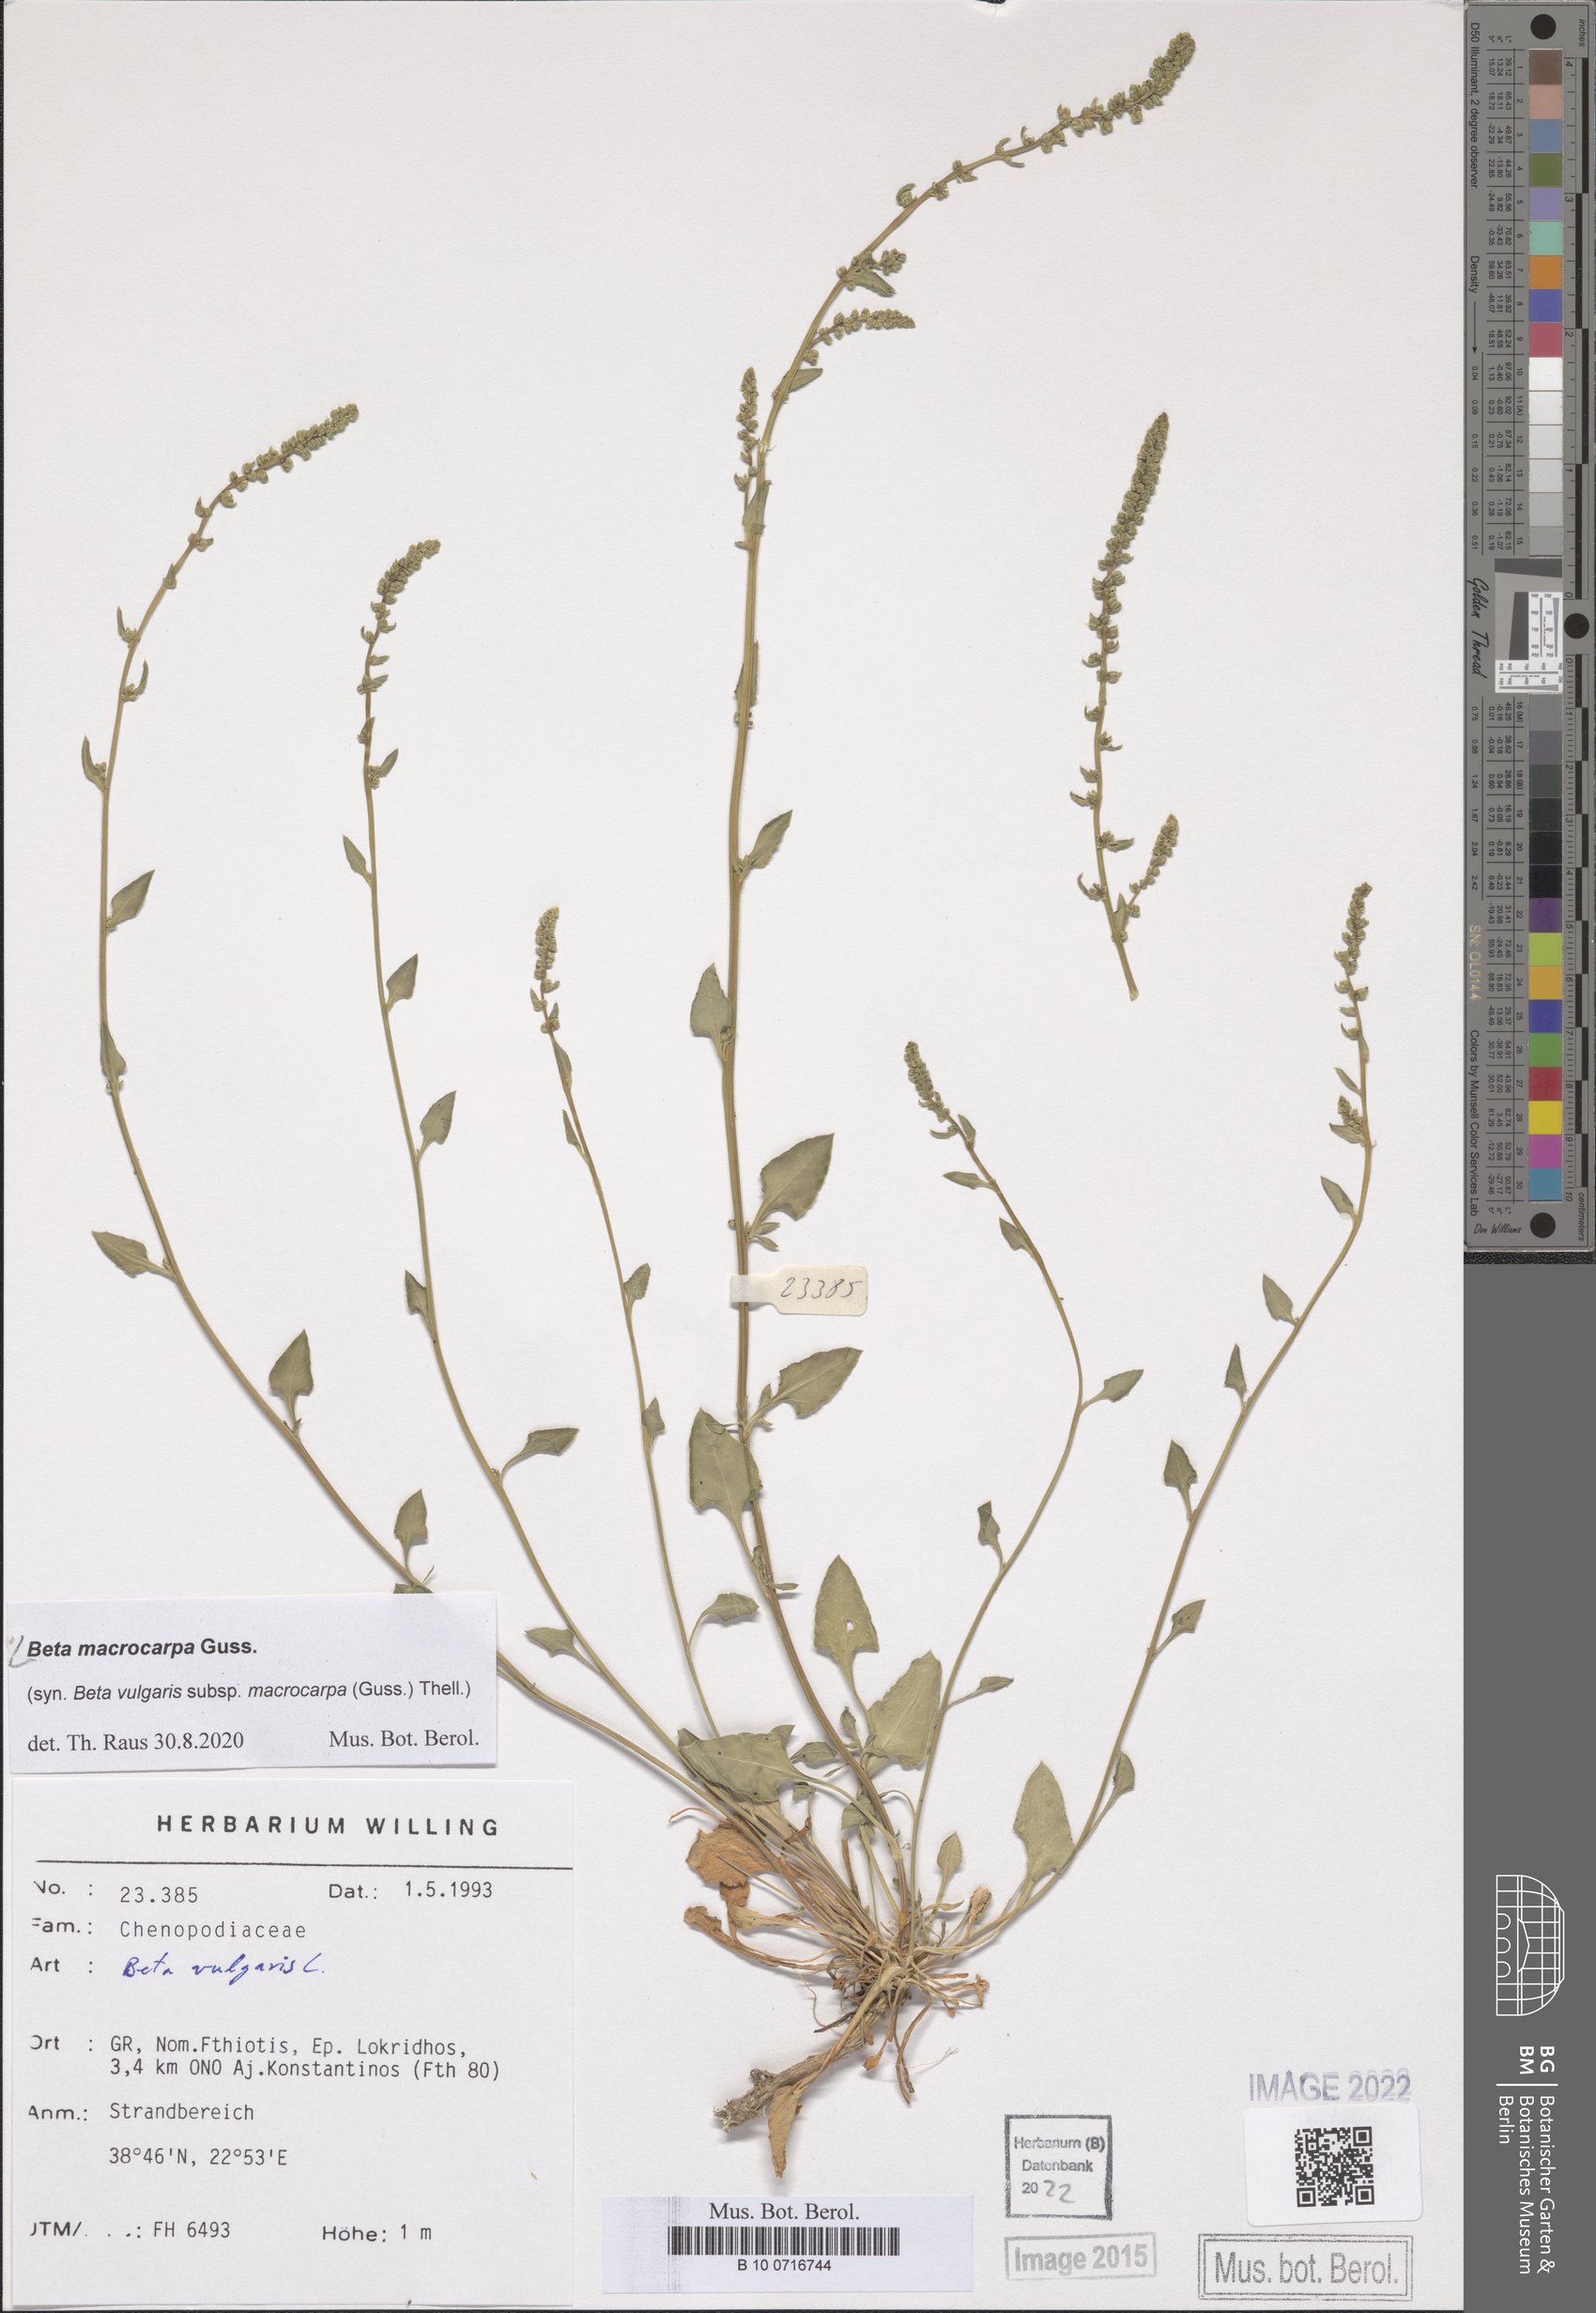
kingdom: Plantae
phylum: Tracheophyta
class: Magnoliopsida
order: Caryophyllales
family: Amaranthaceae
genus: Beta
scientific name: Beta macrocarpa
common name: Beet
